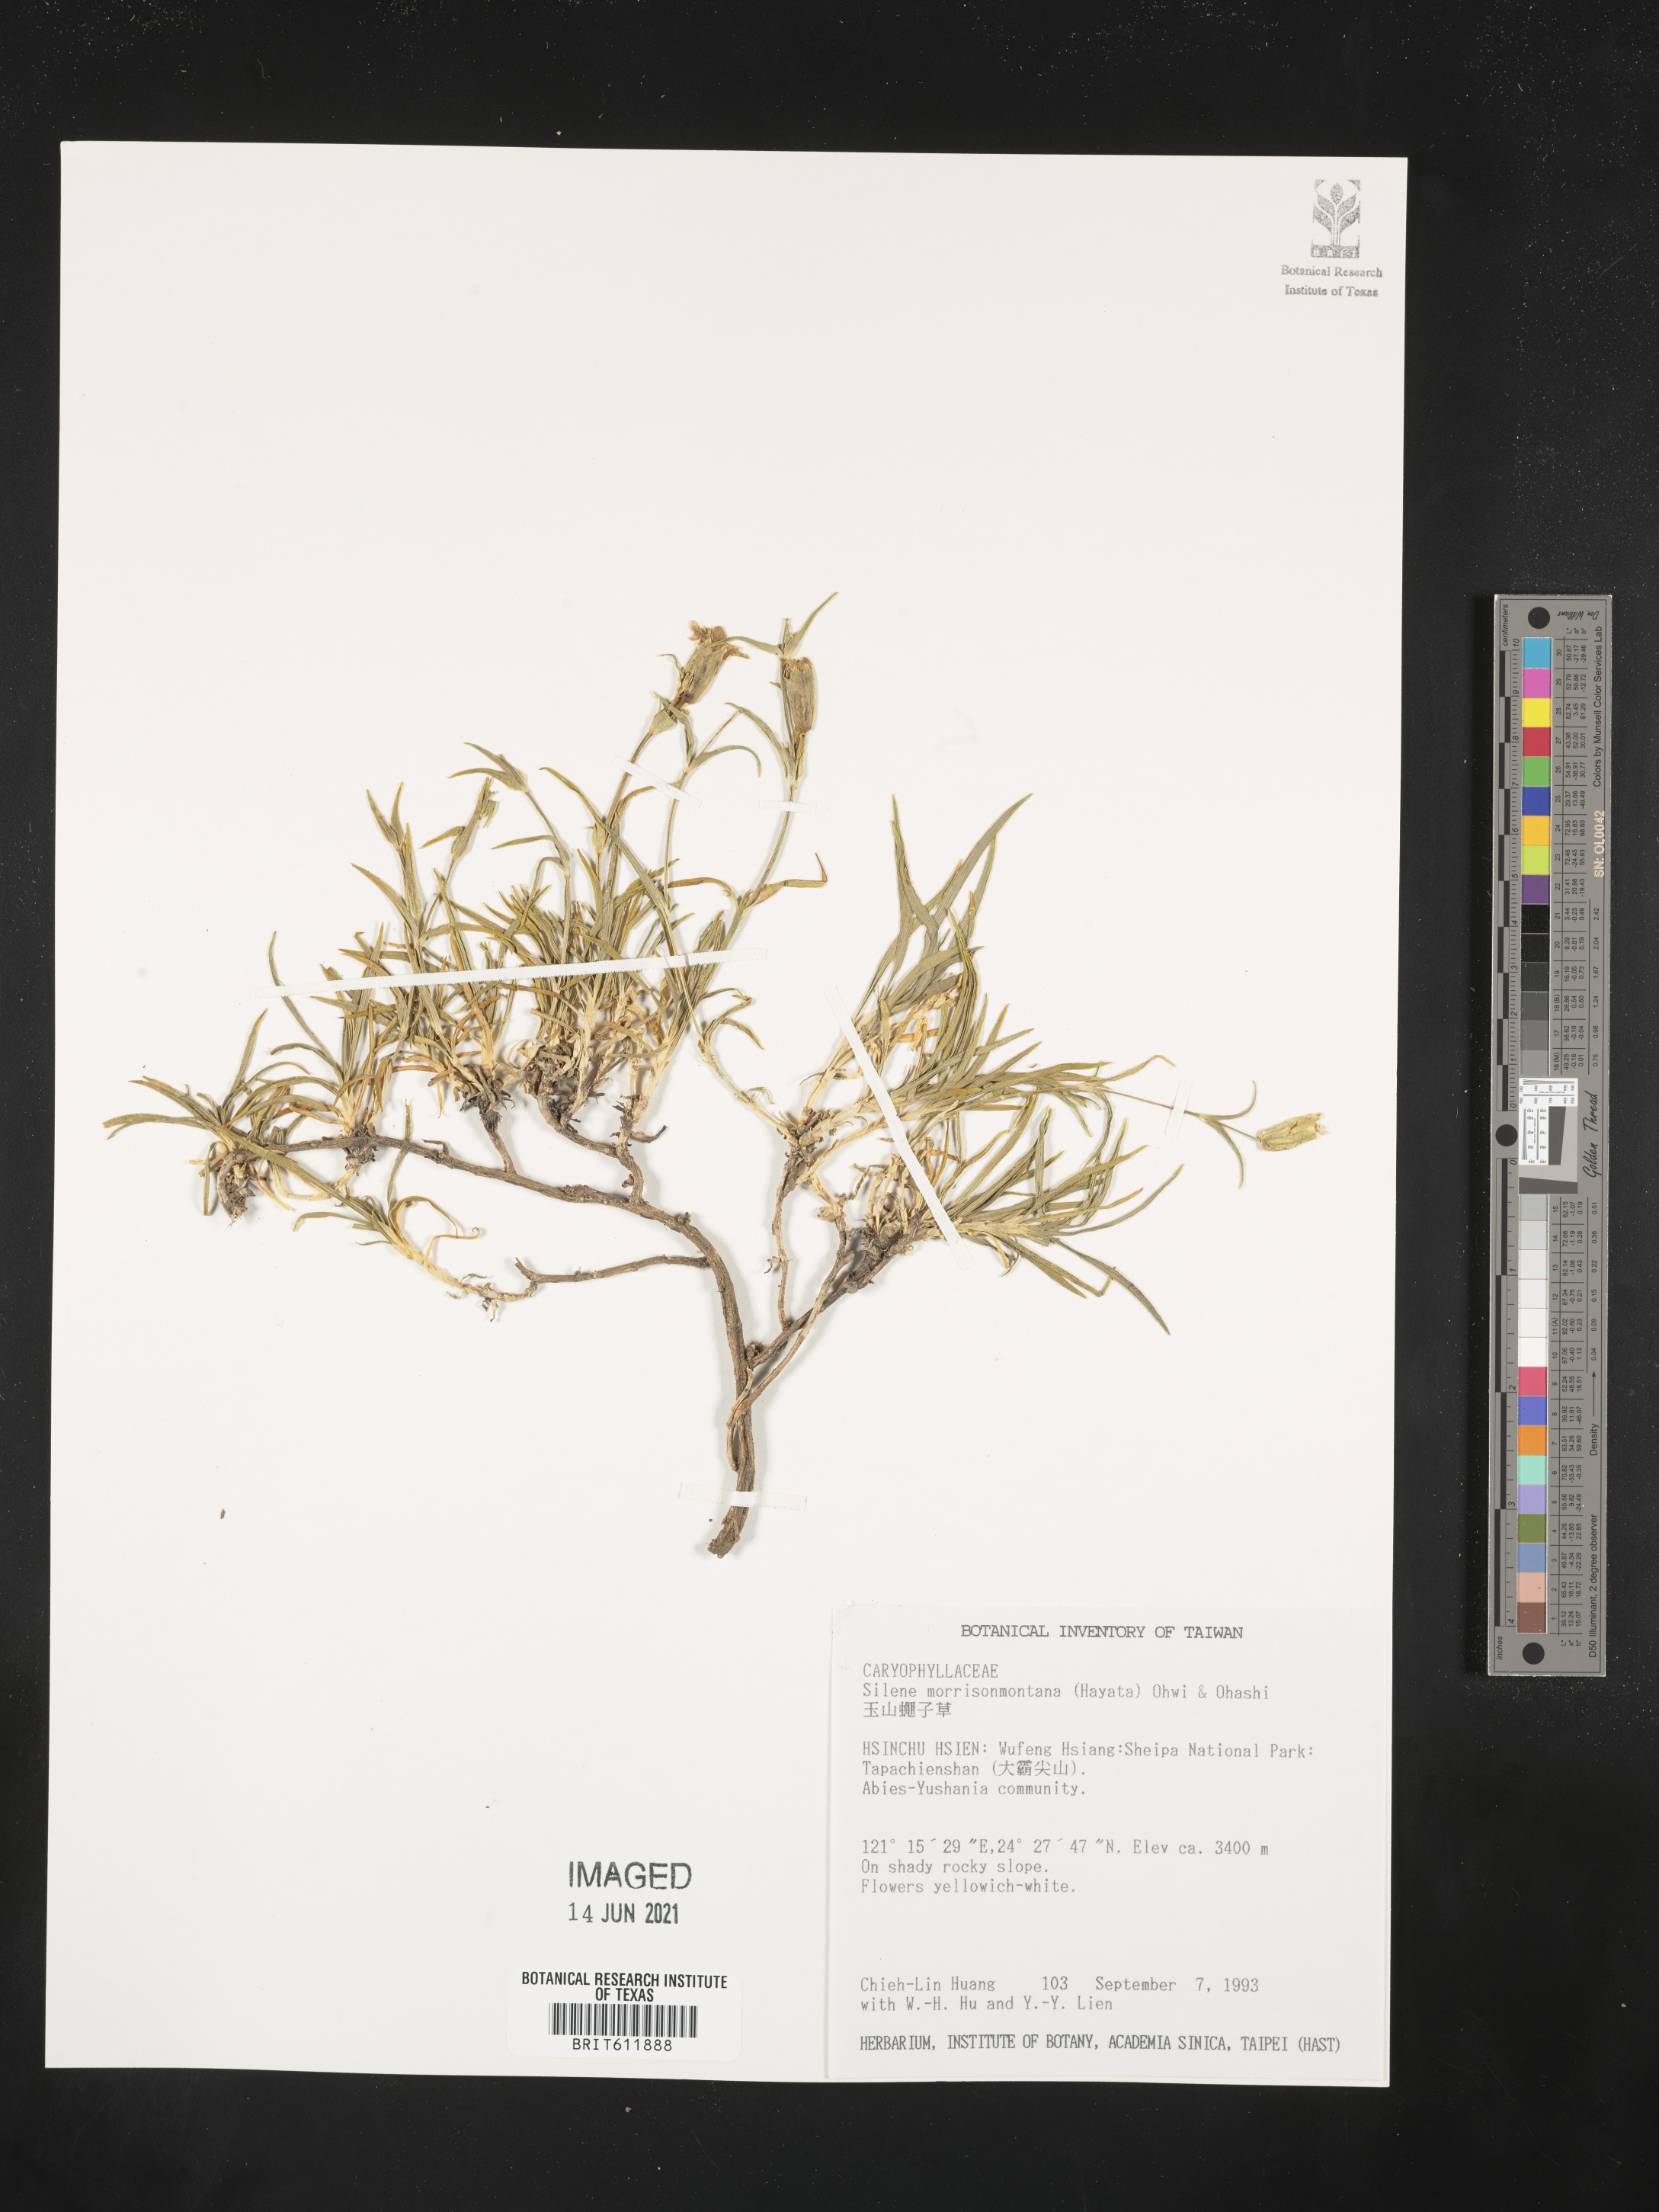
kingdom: Plantae
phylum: Tracheophyta
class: Magnoliopsida
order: Caryophyllales
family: Caryophyllaceae
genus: Silene
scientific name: Silene morrisonmontana
